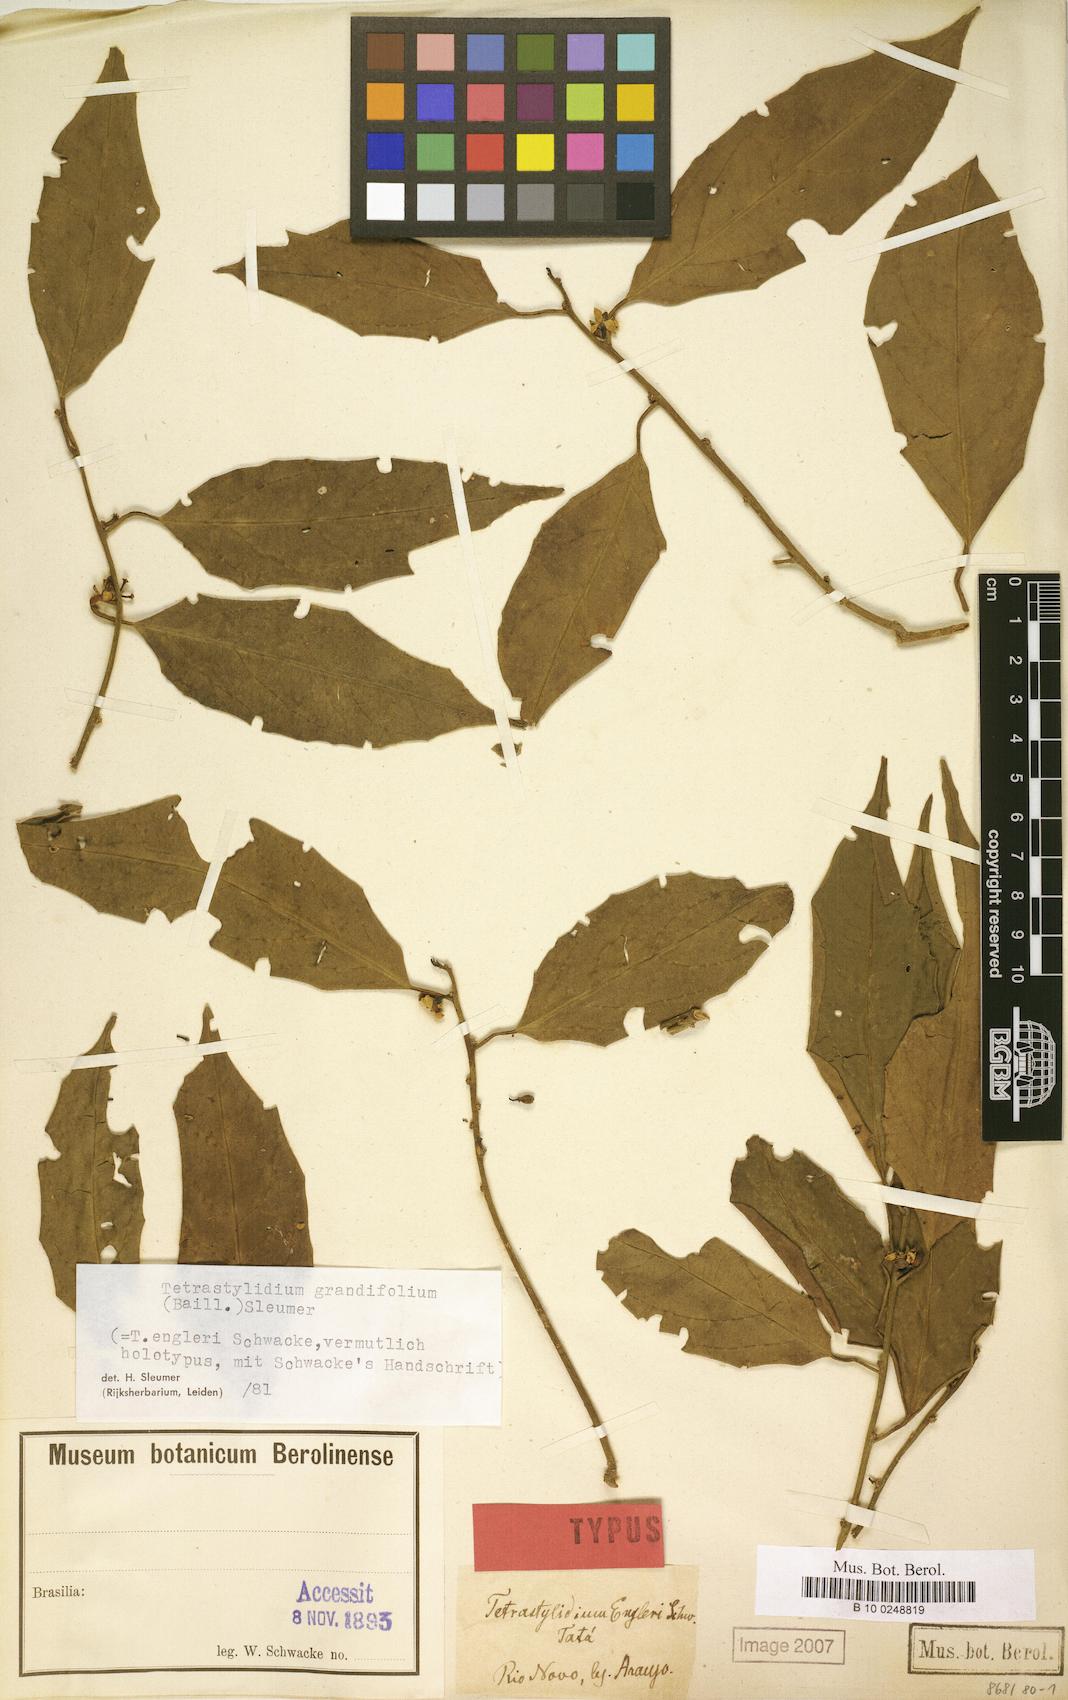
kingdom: Plantae
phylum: Tracheophyta
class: Magnoliopsida
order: Santalales
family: Strombosiaceae
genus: Tetrastylidium
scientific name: Tetrastylidium grandifolium
